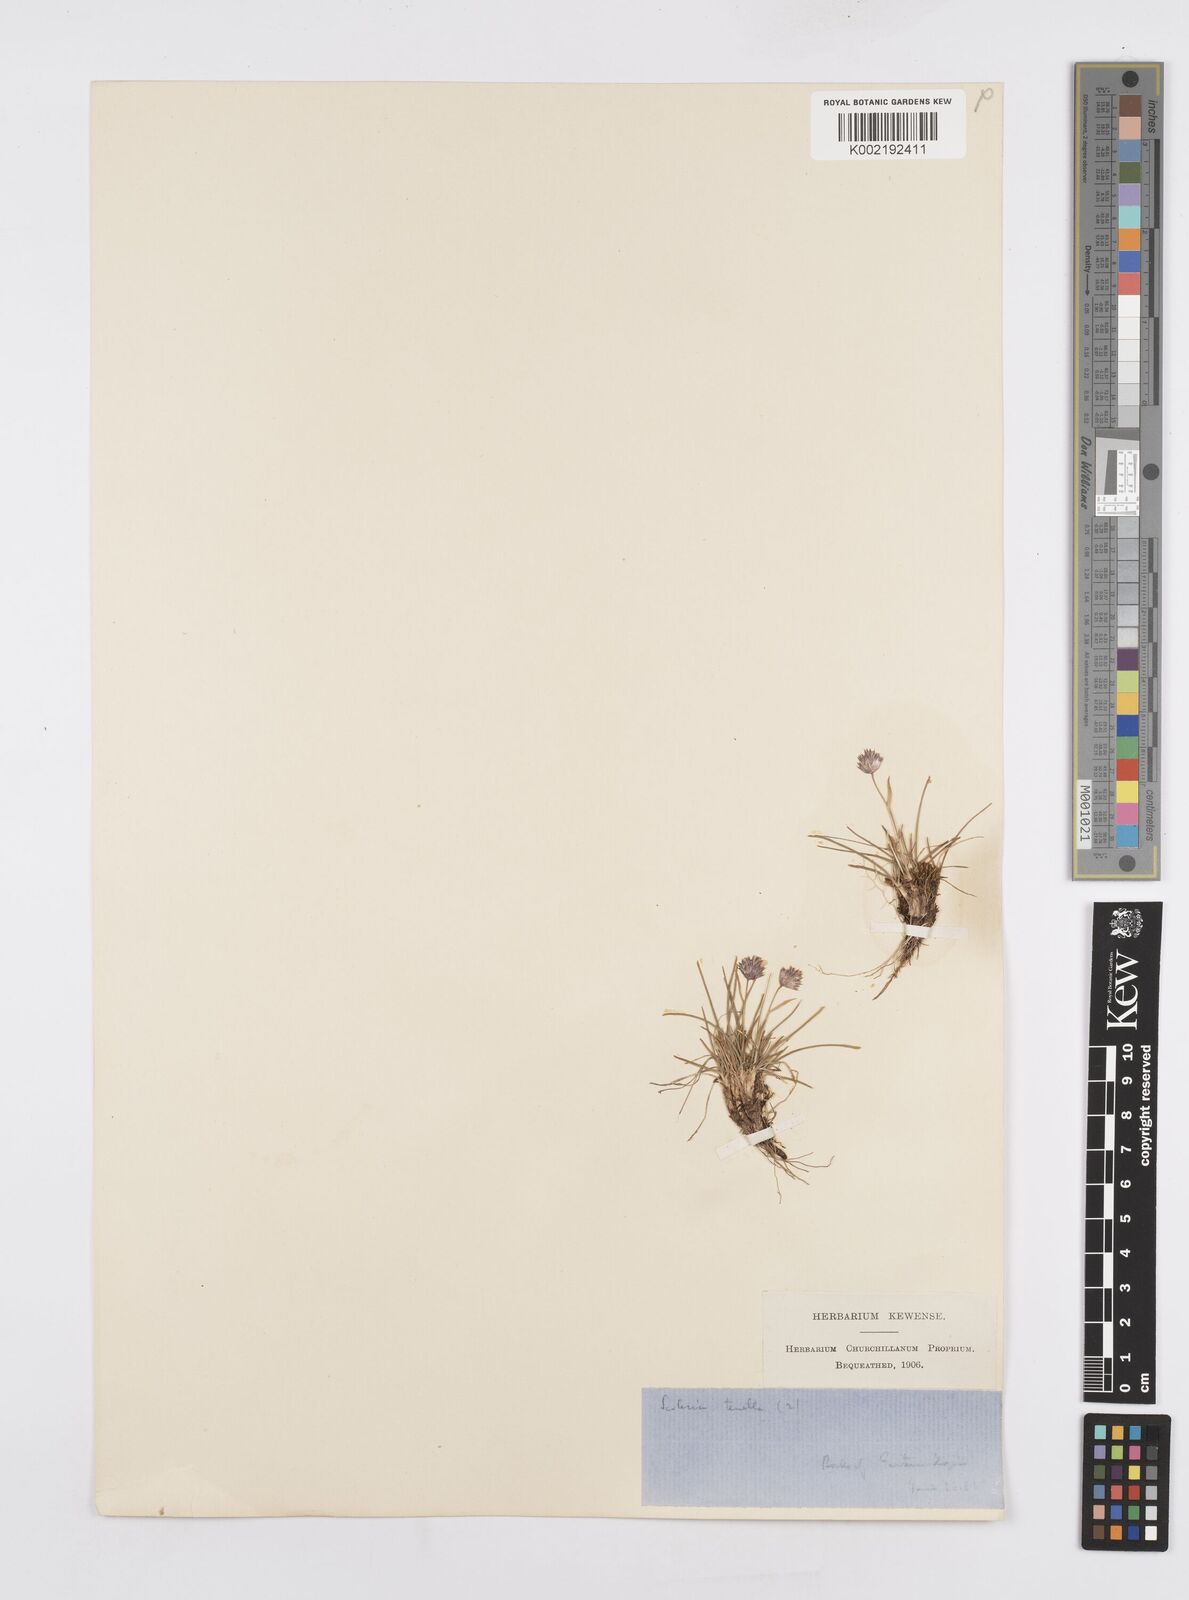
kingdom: Plantae
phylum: Tracheophyta
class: Liliopsida
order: Poales
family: Poaceae
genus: Psilathera
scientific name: Psilathera ovata
